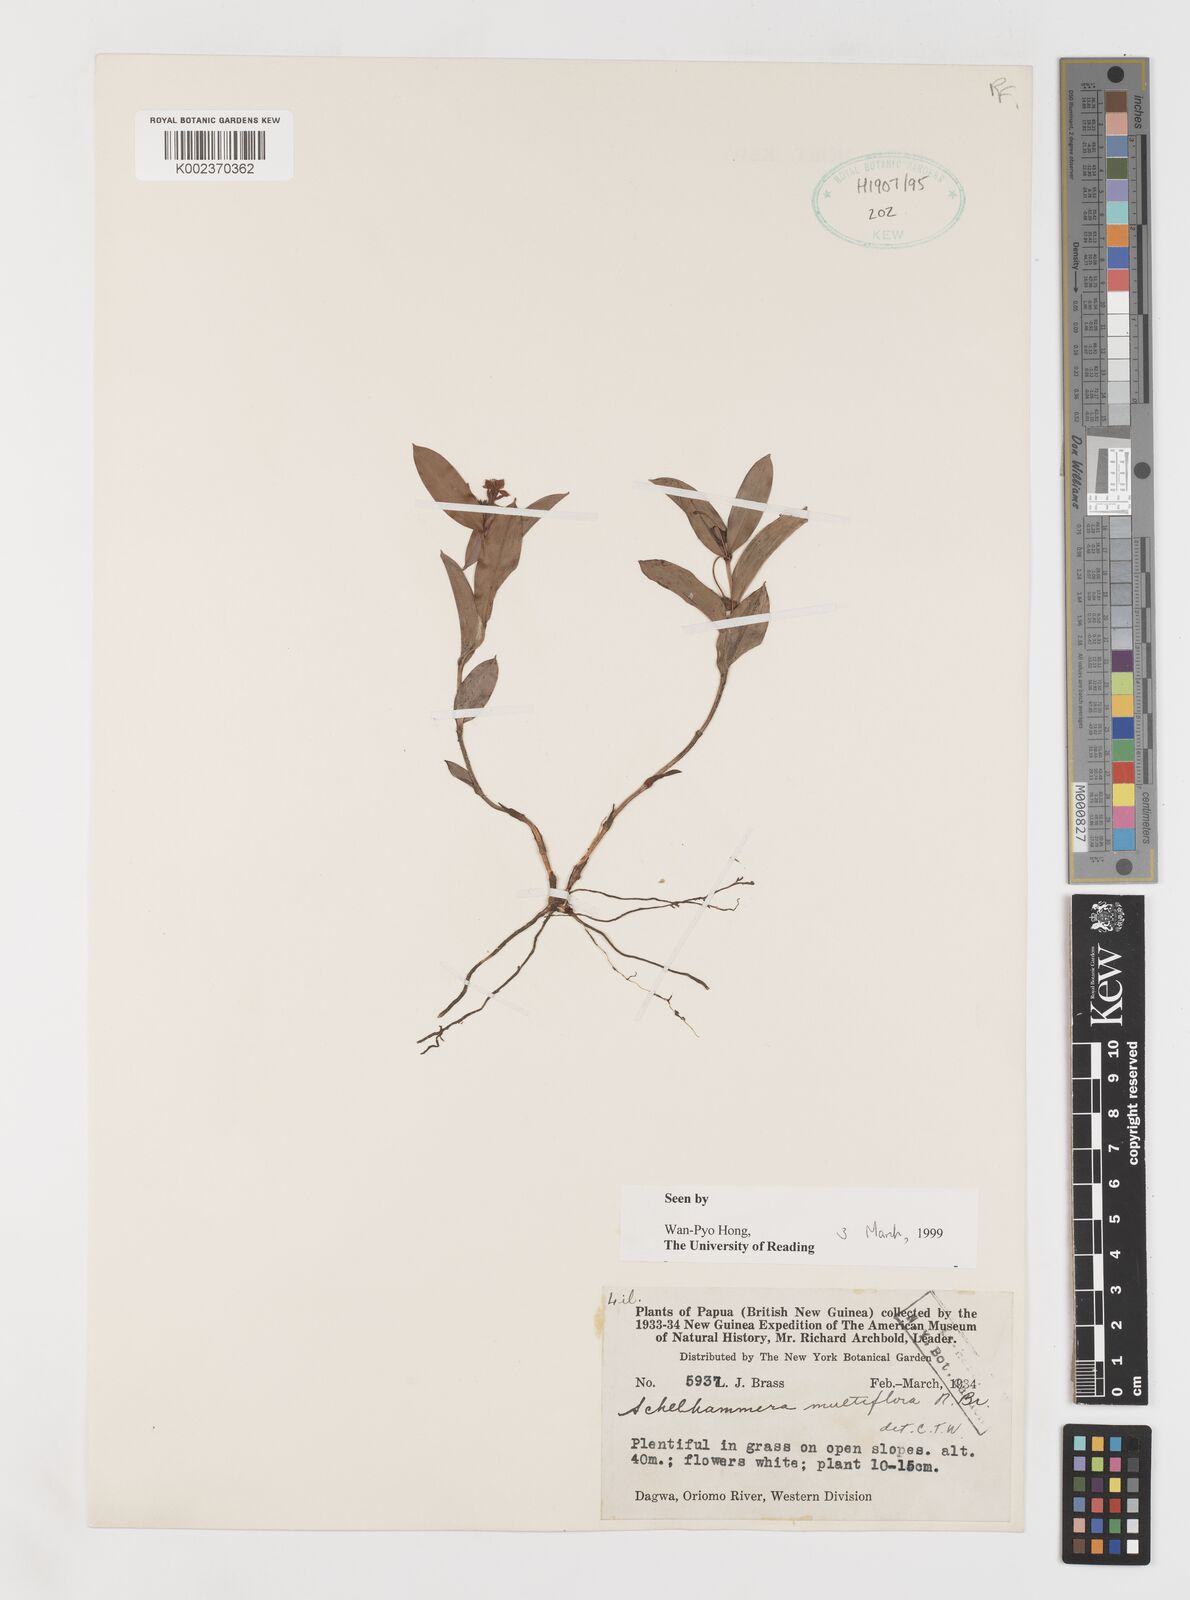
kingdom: Plantae
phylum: Tracheophyta
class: Liliopsida
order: Liliales
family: Colchicaceae
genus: Schelhammera
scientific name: Schelhammera multiflora
